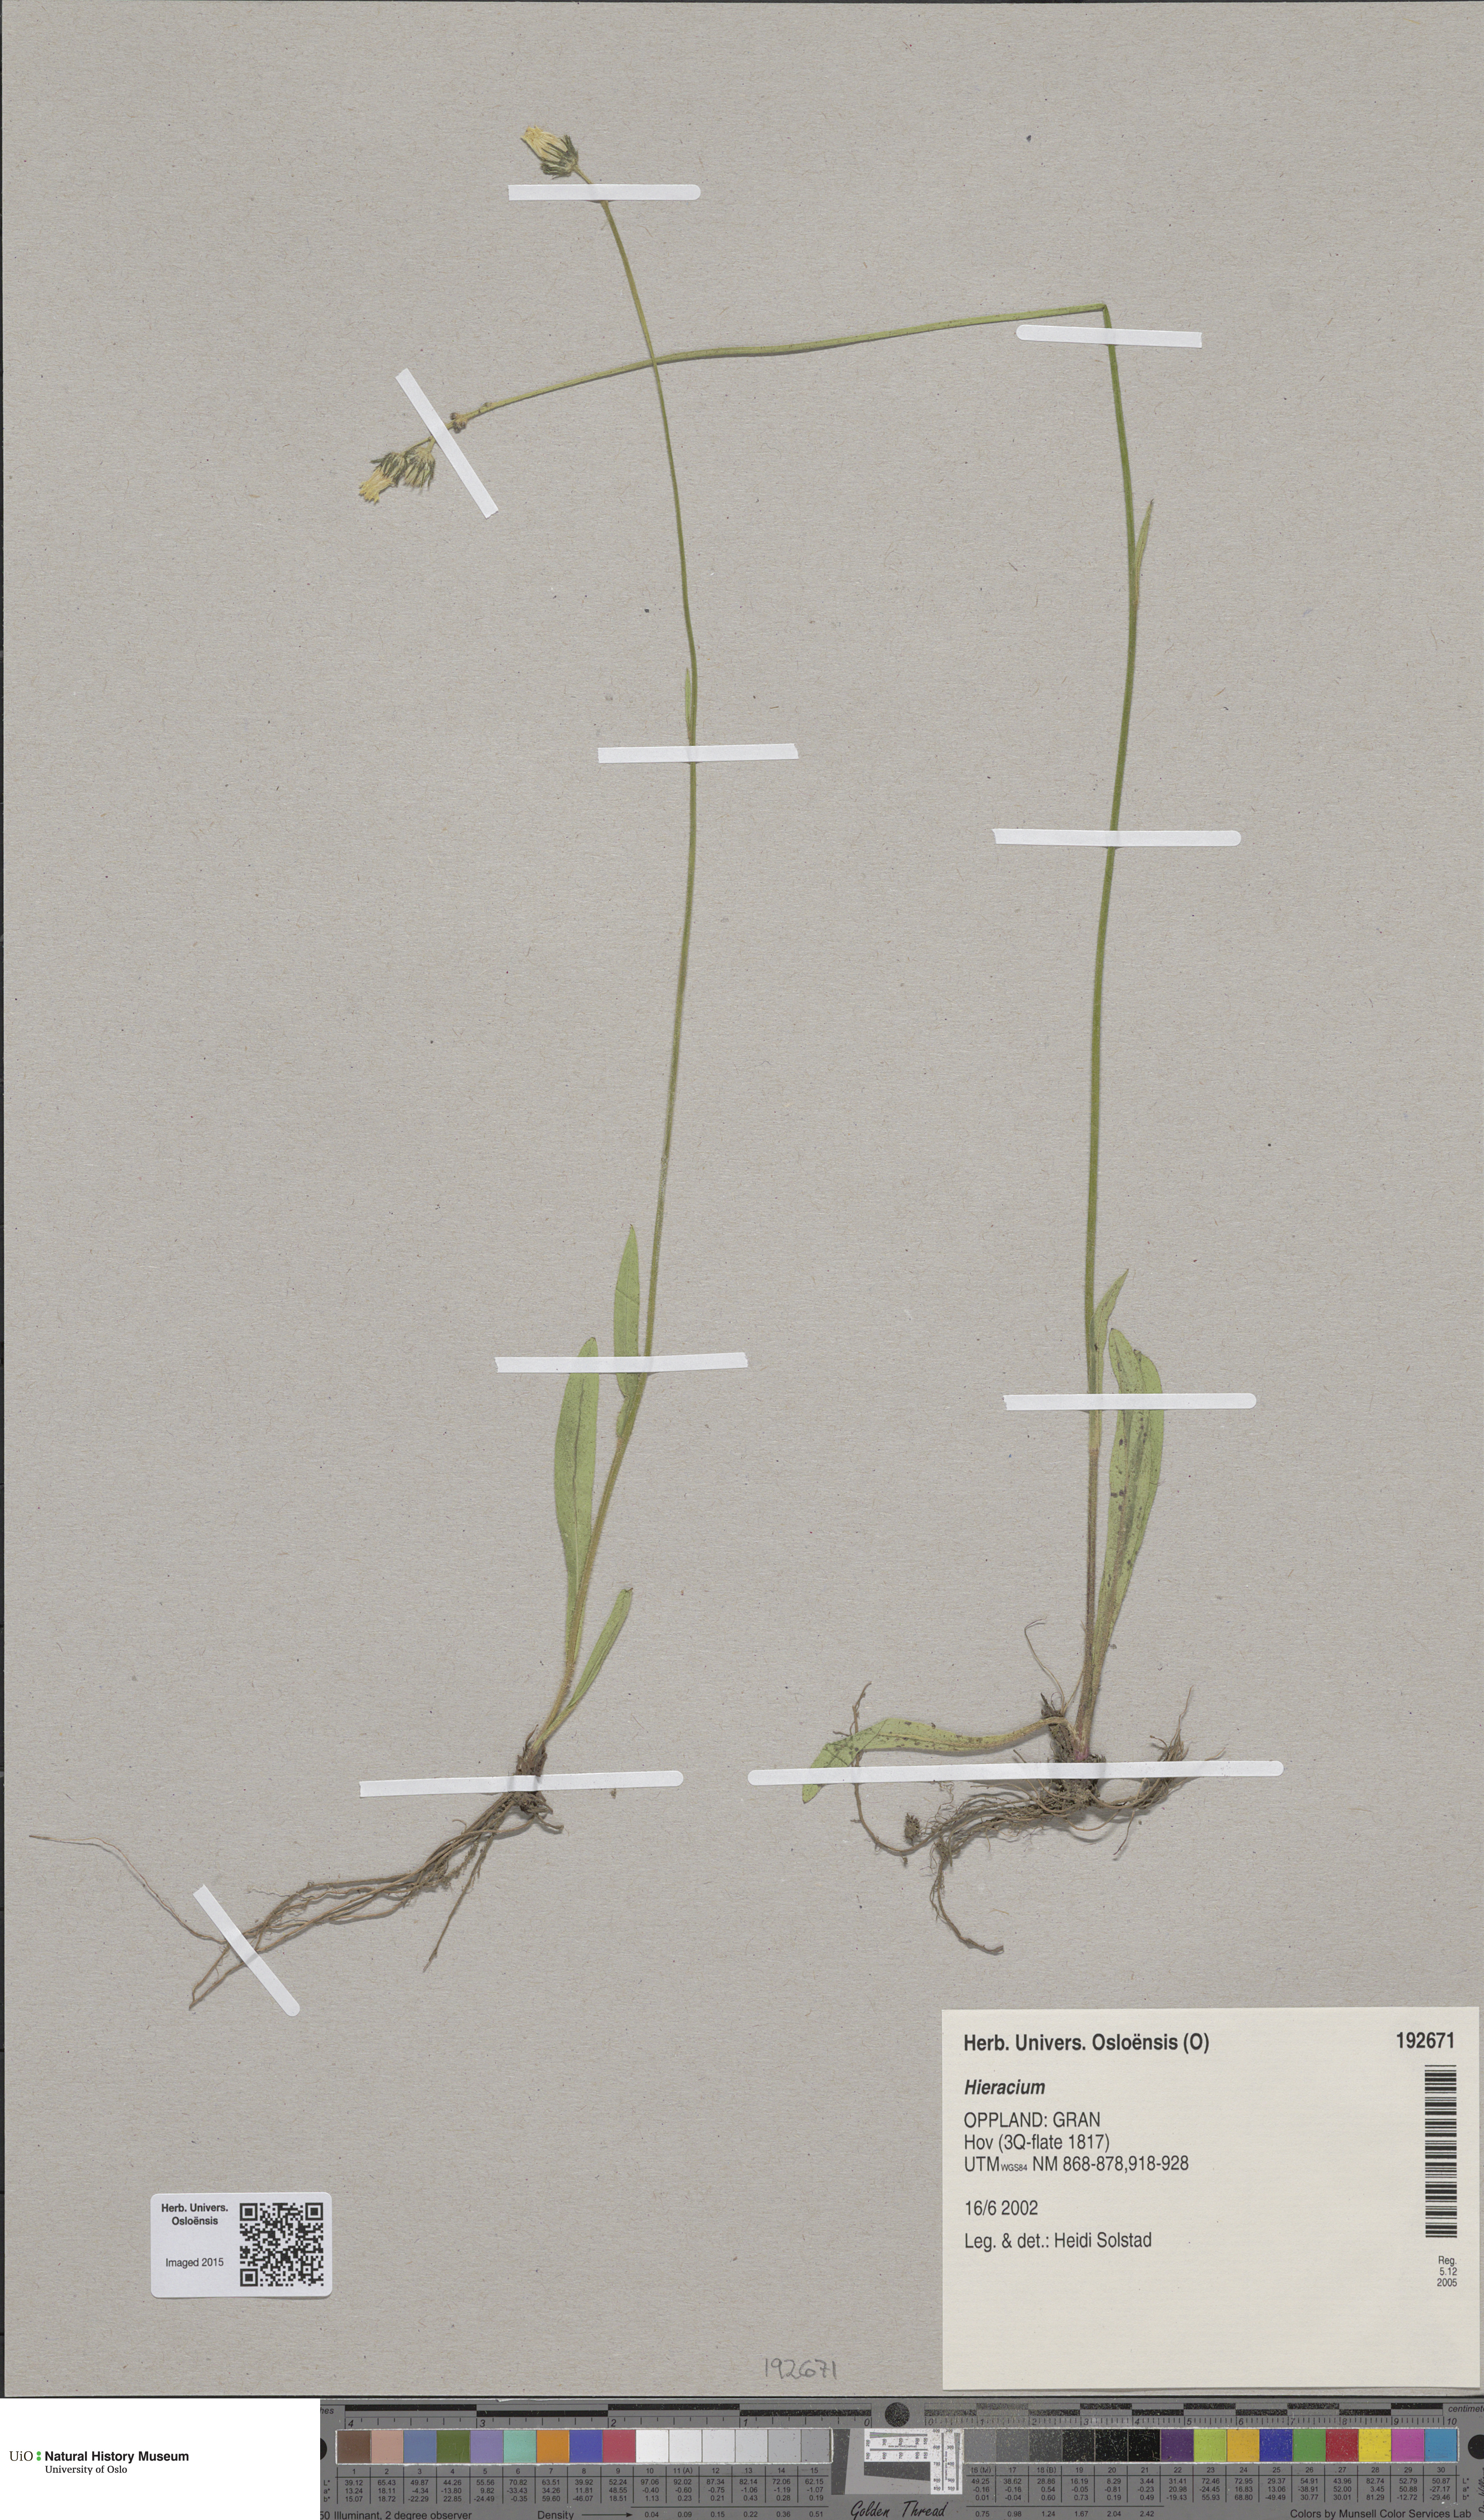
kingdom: Plantae
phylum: Tracheophyta
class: Magnoliopsida
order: Asterales
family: Asteraceae
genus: Hieracium
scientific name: Hieracium
